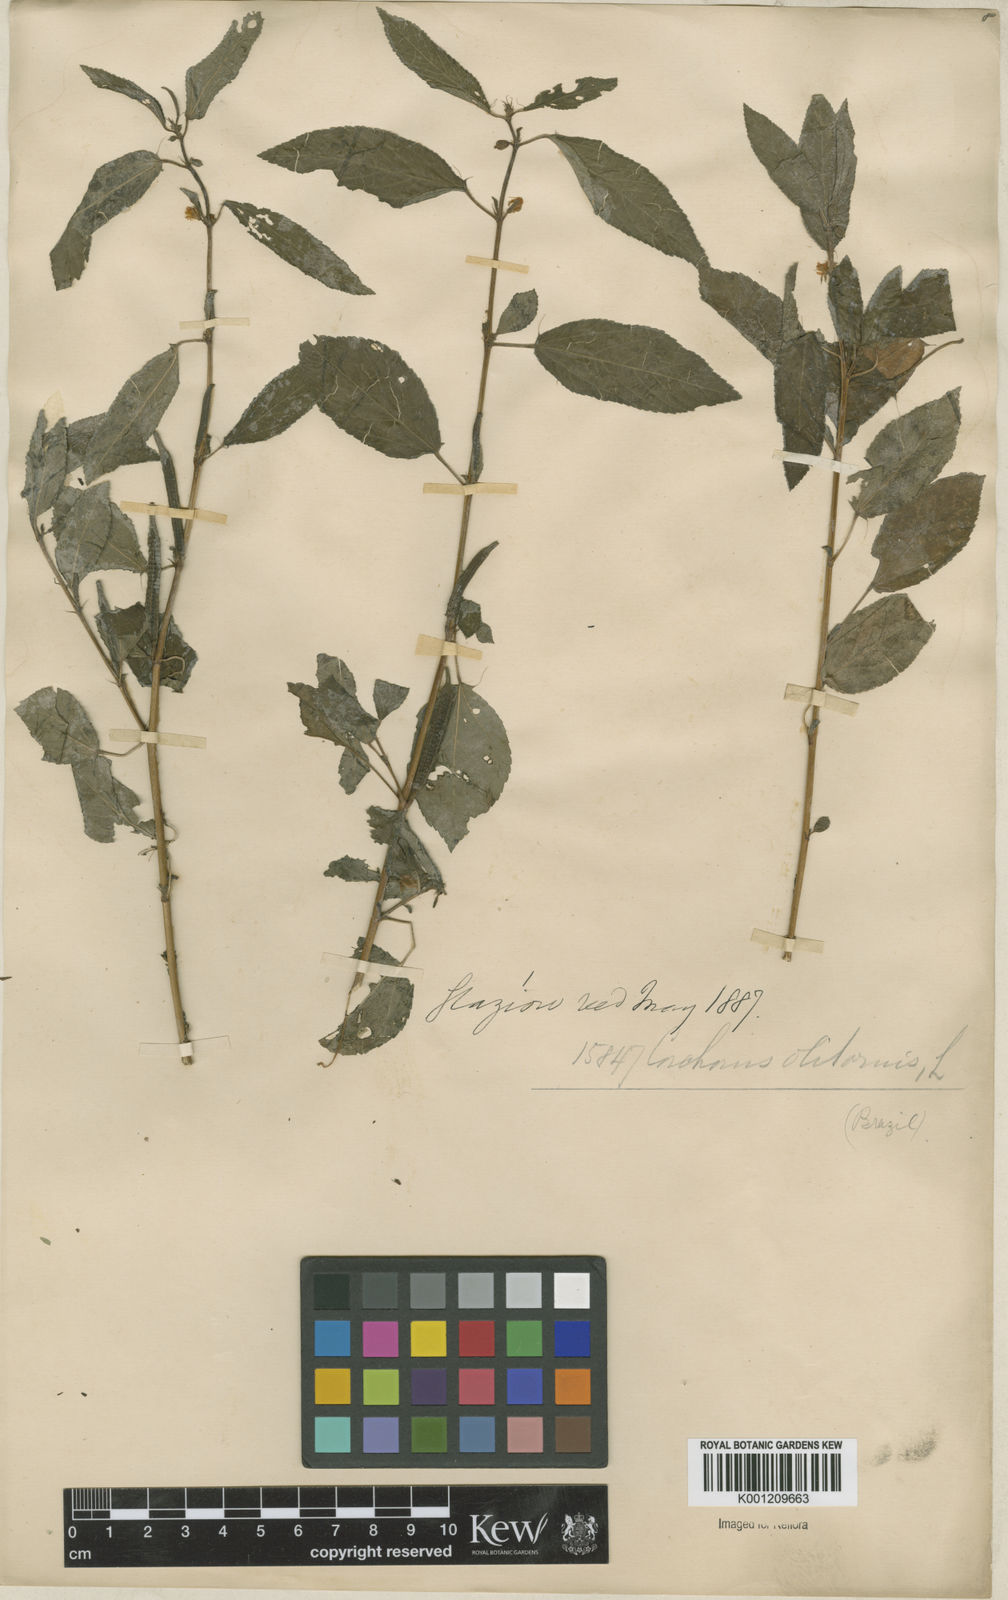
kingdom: Plantae
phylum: Tracheophyta
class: Magnoliopsida
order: Malvales
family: Malvaceae
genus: Corchorus
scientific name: Corchorus olitorius
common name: Tossa jute
